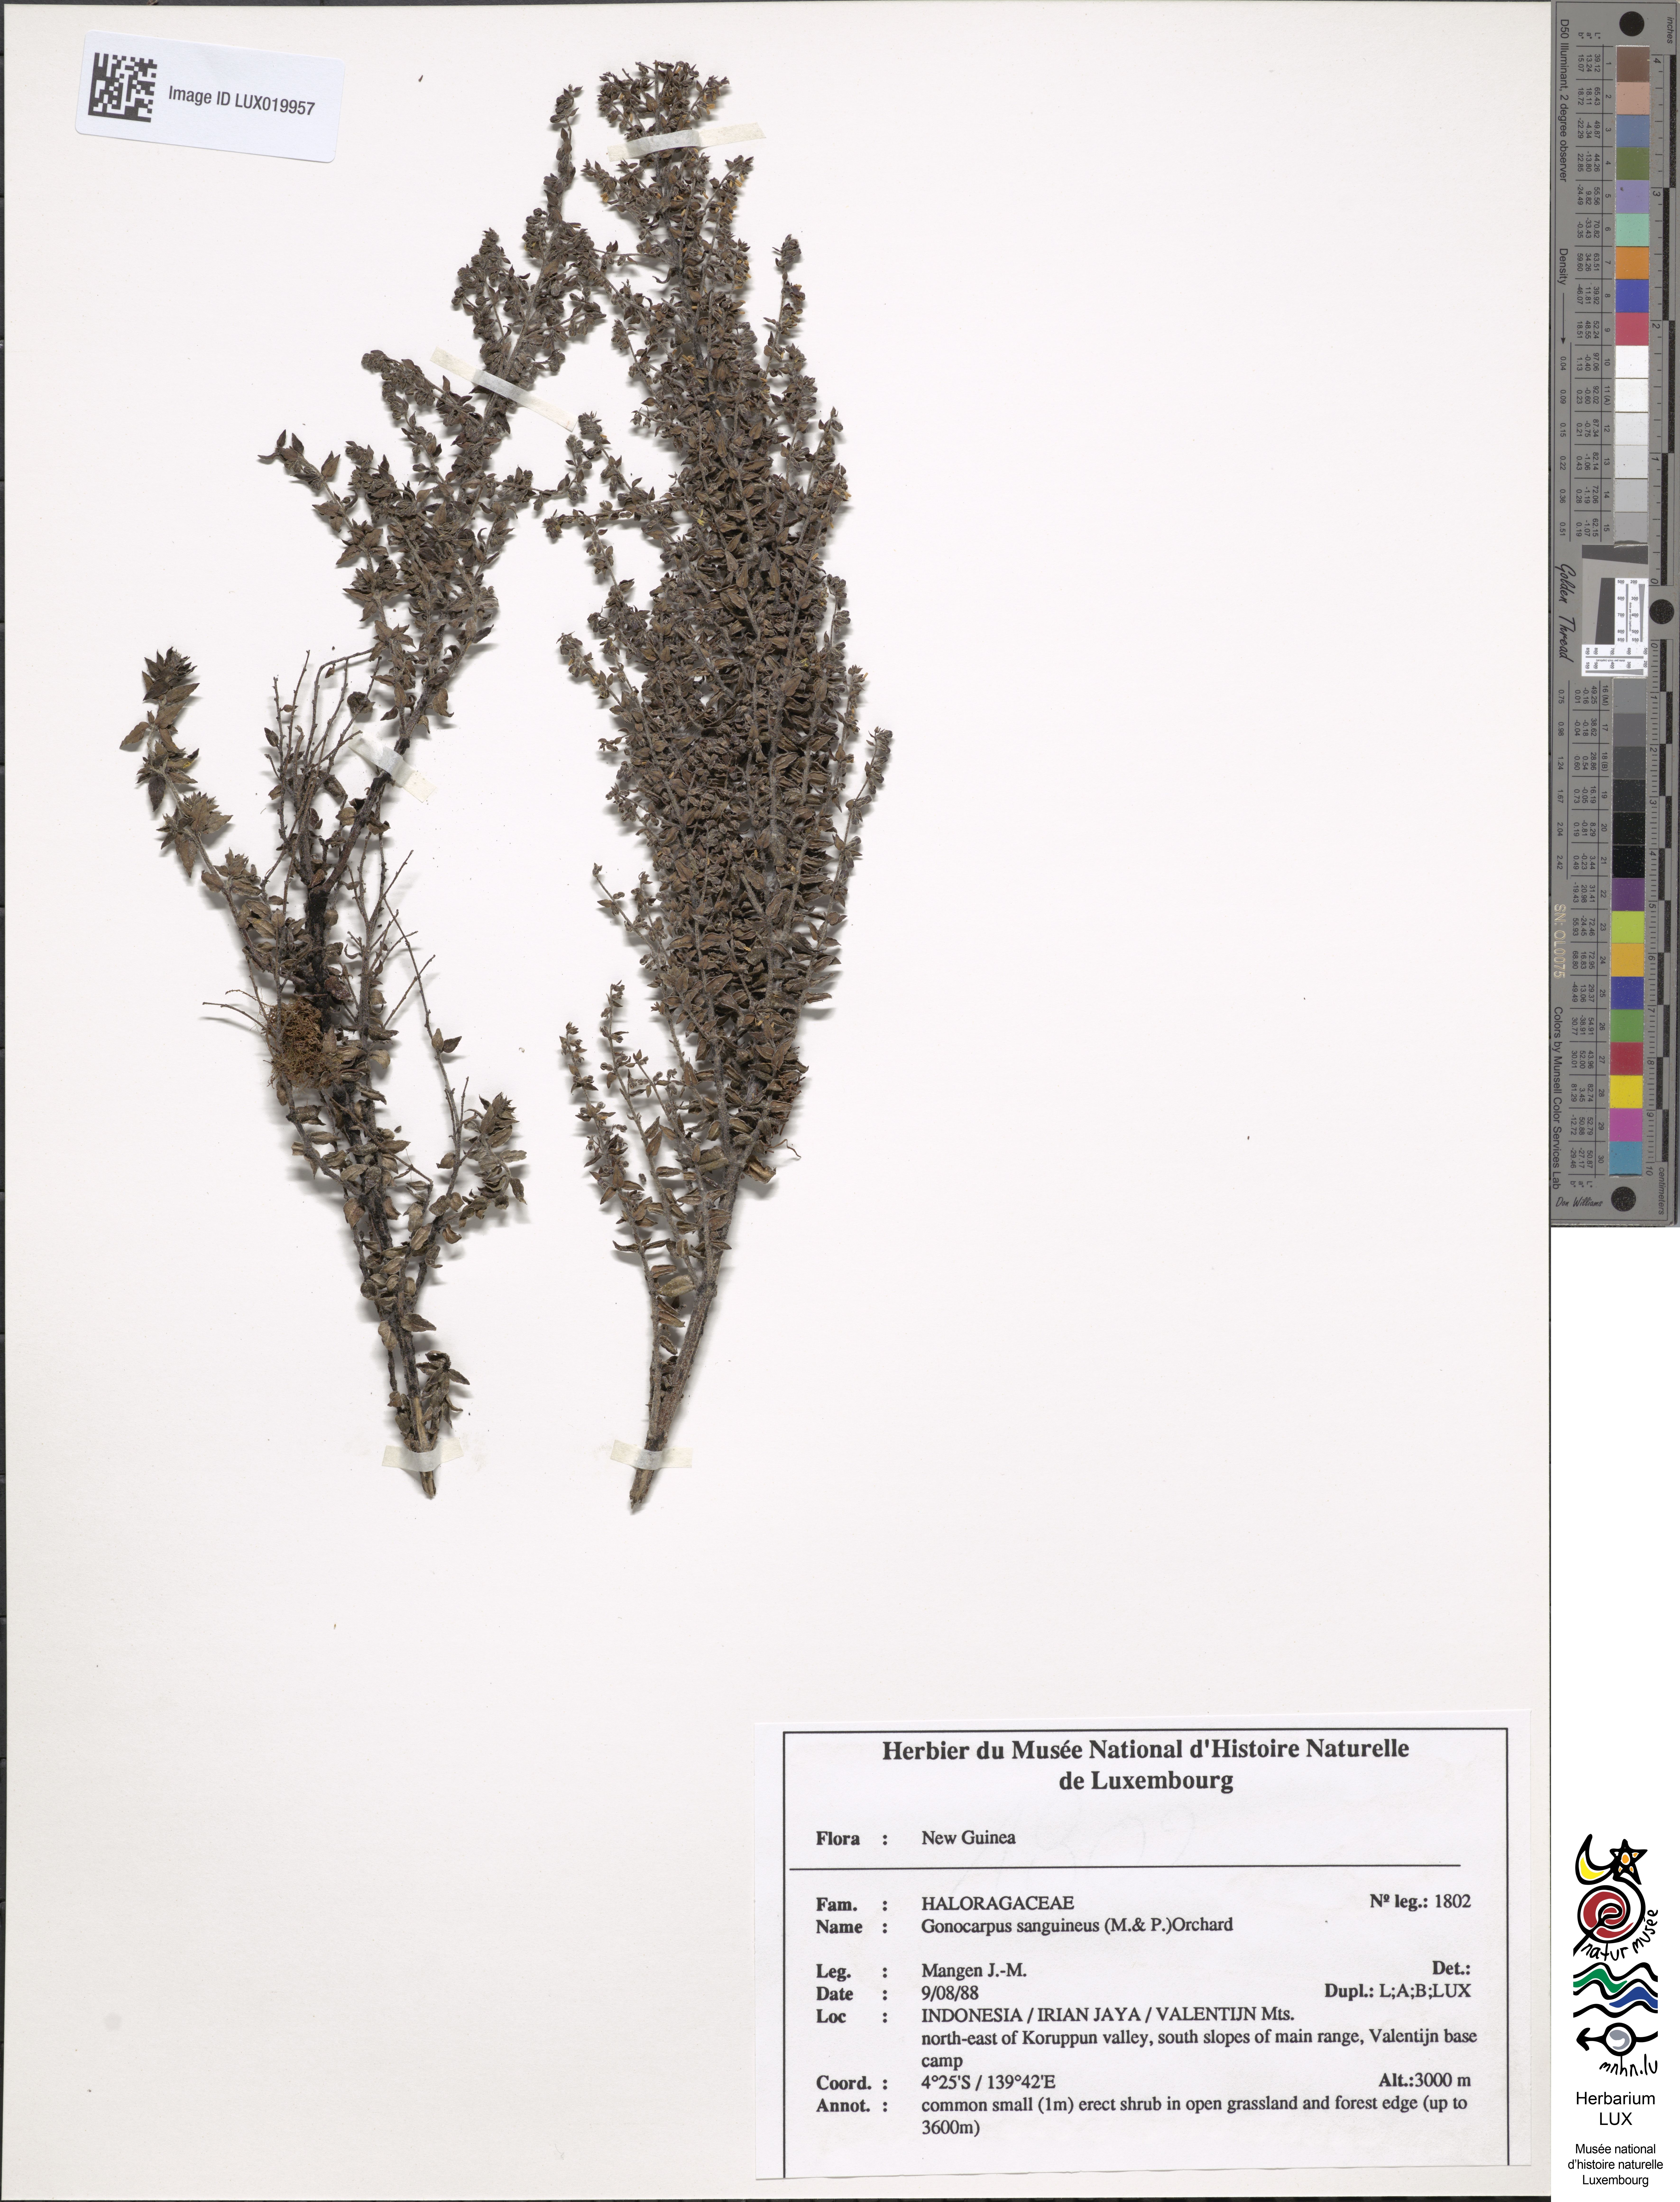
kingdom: Plantae
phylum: Tracheophyta
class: Magnoliopsida
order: Saxifragales
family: Haloragaceae
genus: Gonocarpus
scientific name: Gonocarpus sanguineus
